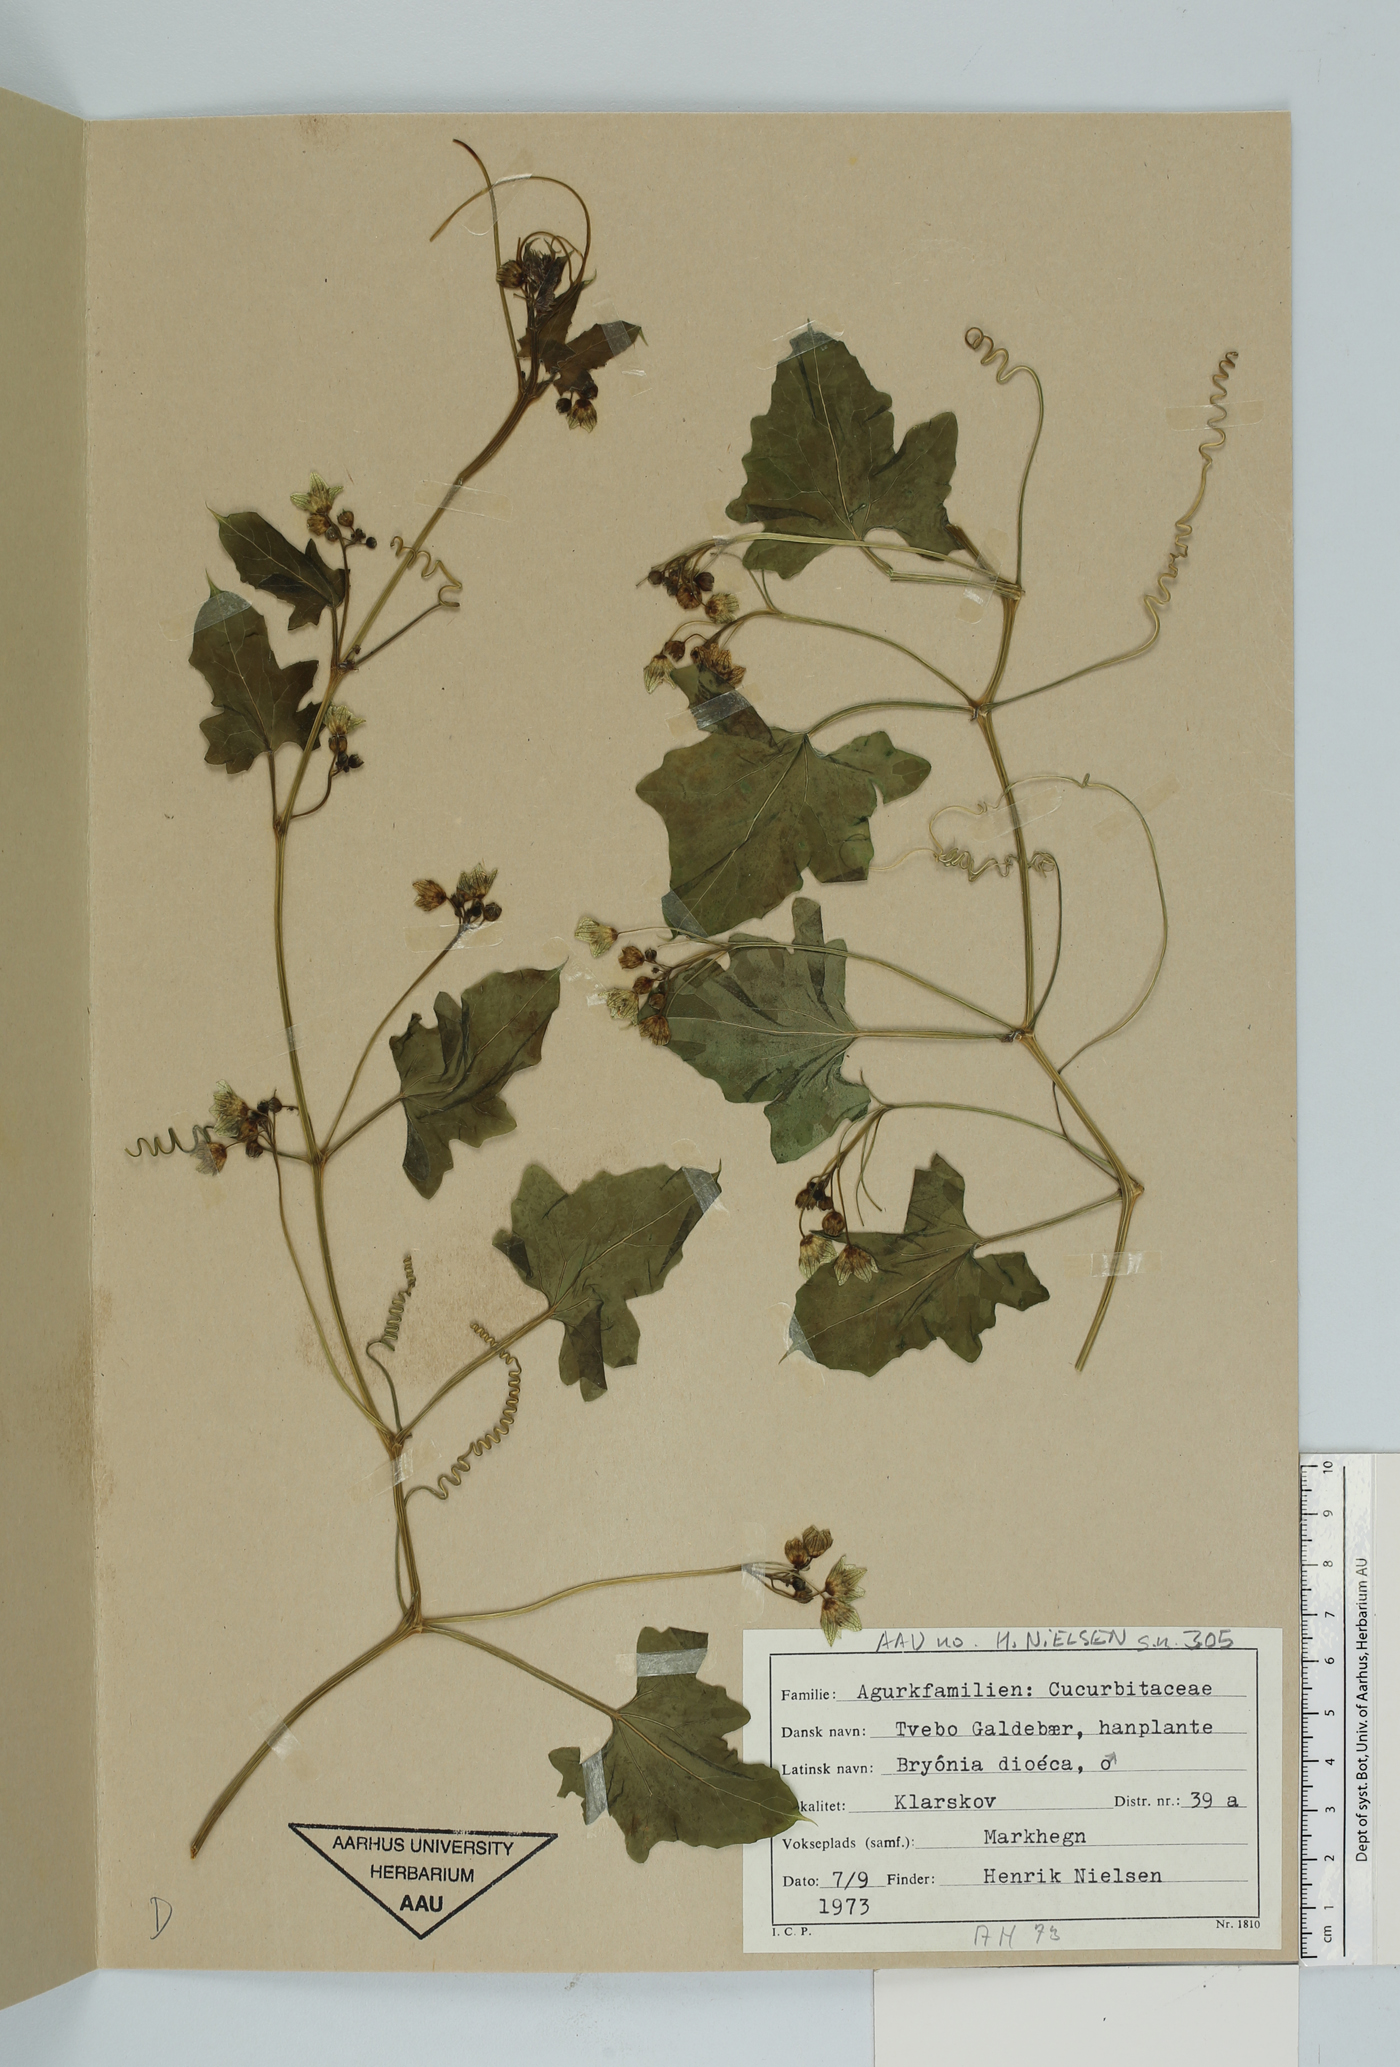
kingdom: Plantae
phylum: Tracheophyta
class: Magnoliopsida
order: Cucurbitales
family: Cucurbitaceae
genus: Bryonia
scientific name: Bryonia dioica
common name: White bryony
